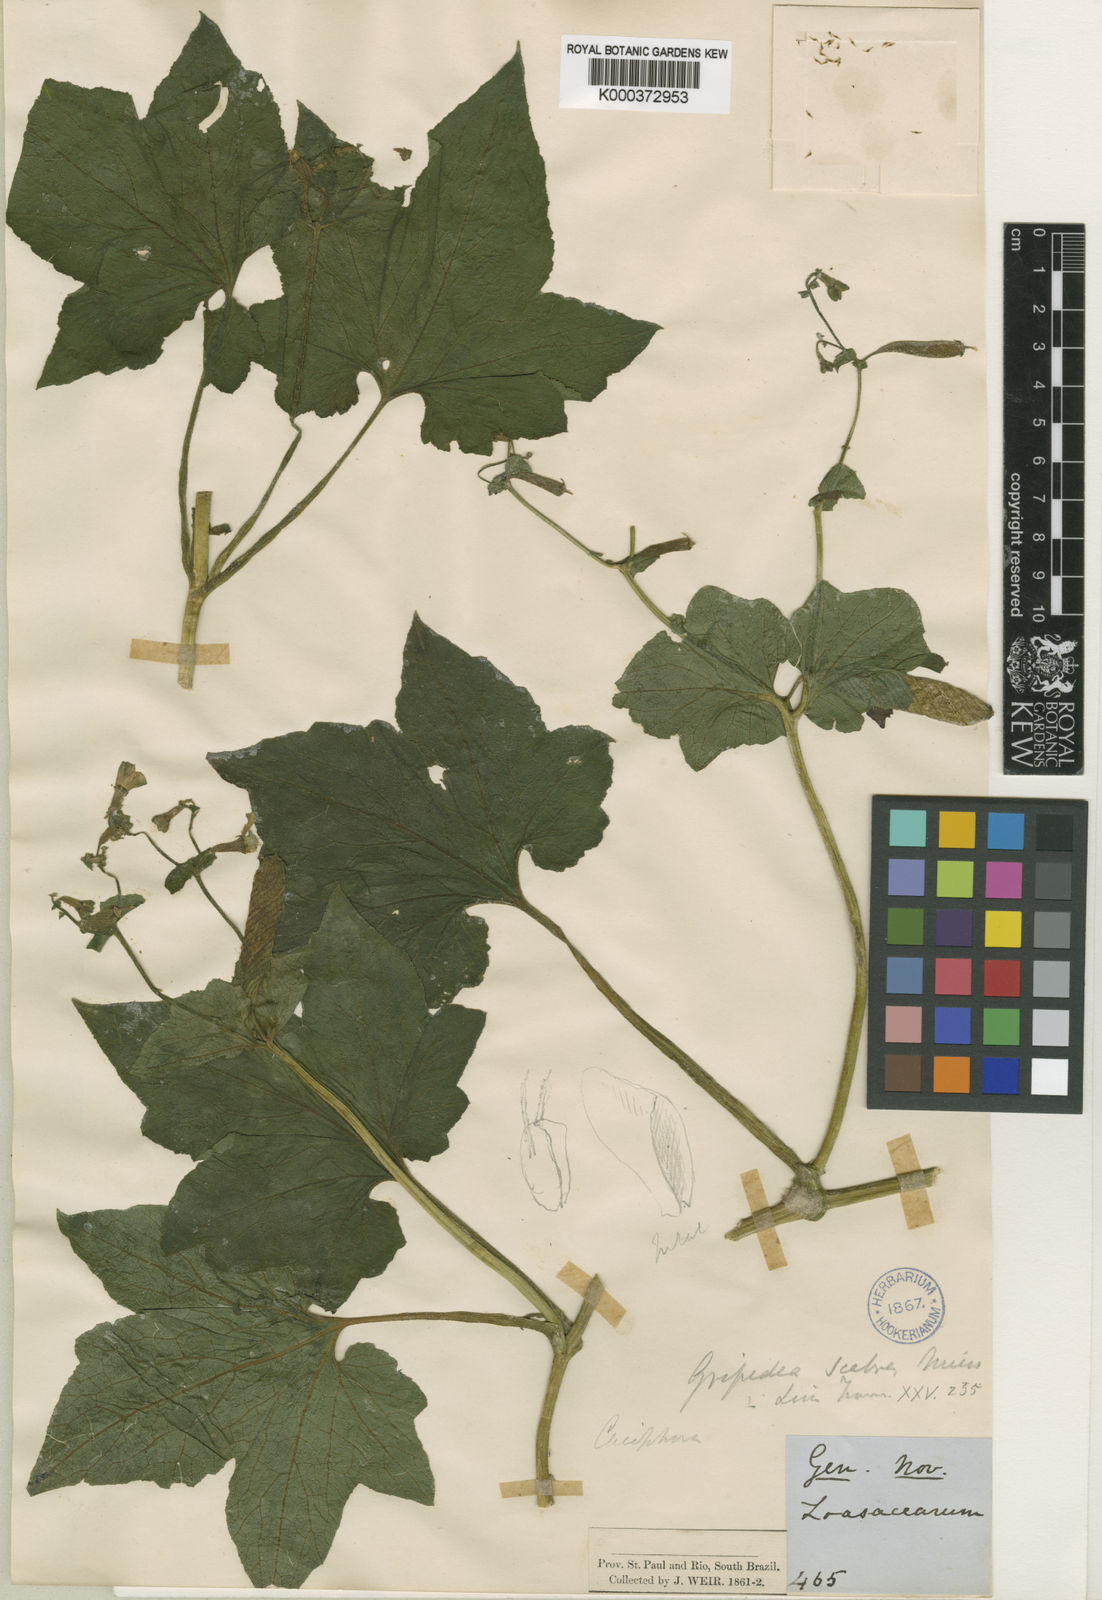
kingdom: Plantae
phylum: Tracheophyta
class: Magnoliopsida
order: Cornales
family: Loasaceae
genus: Blumenbachia
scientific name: Blumenbachia scabra
